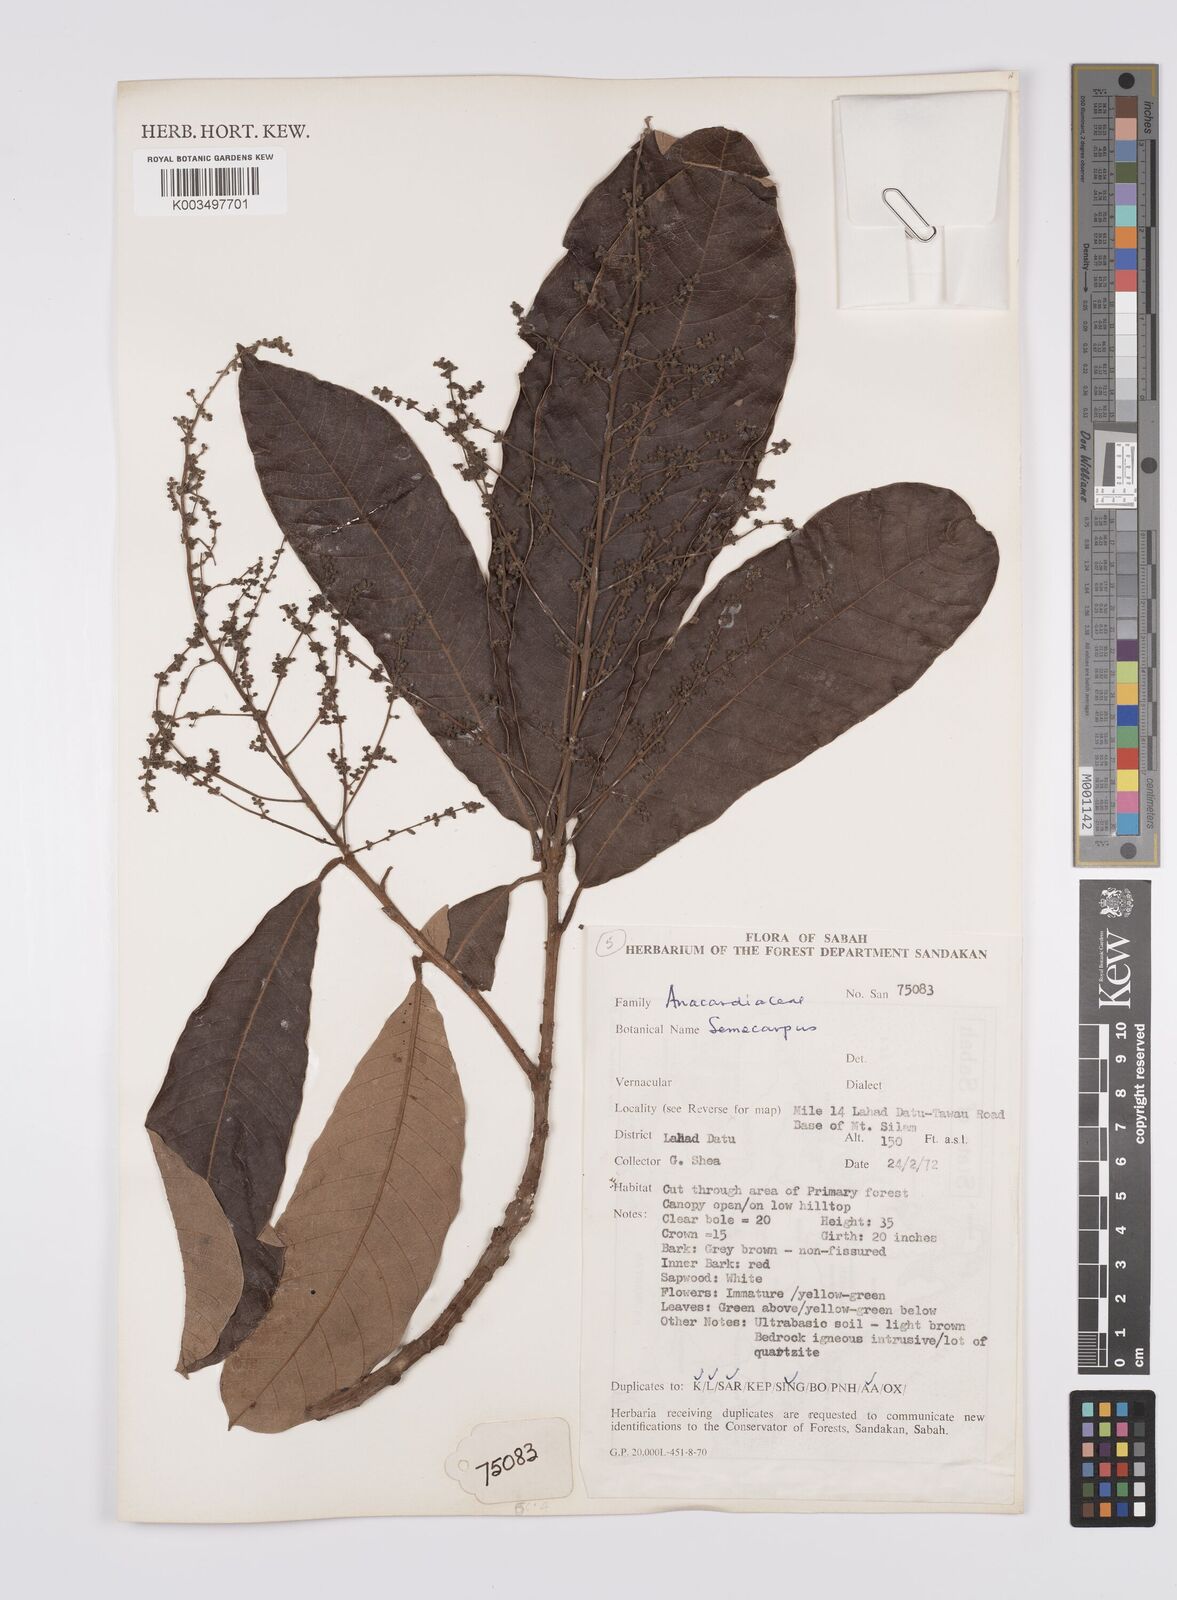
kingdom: Plantae
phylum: Tracheophyta
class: Magnoliopsida
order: Sapindales
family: Anacardiaceae
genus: Semecarpus
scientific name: Semecarpus
